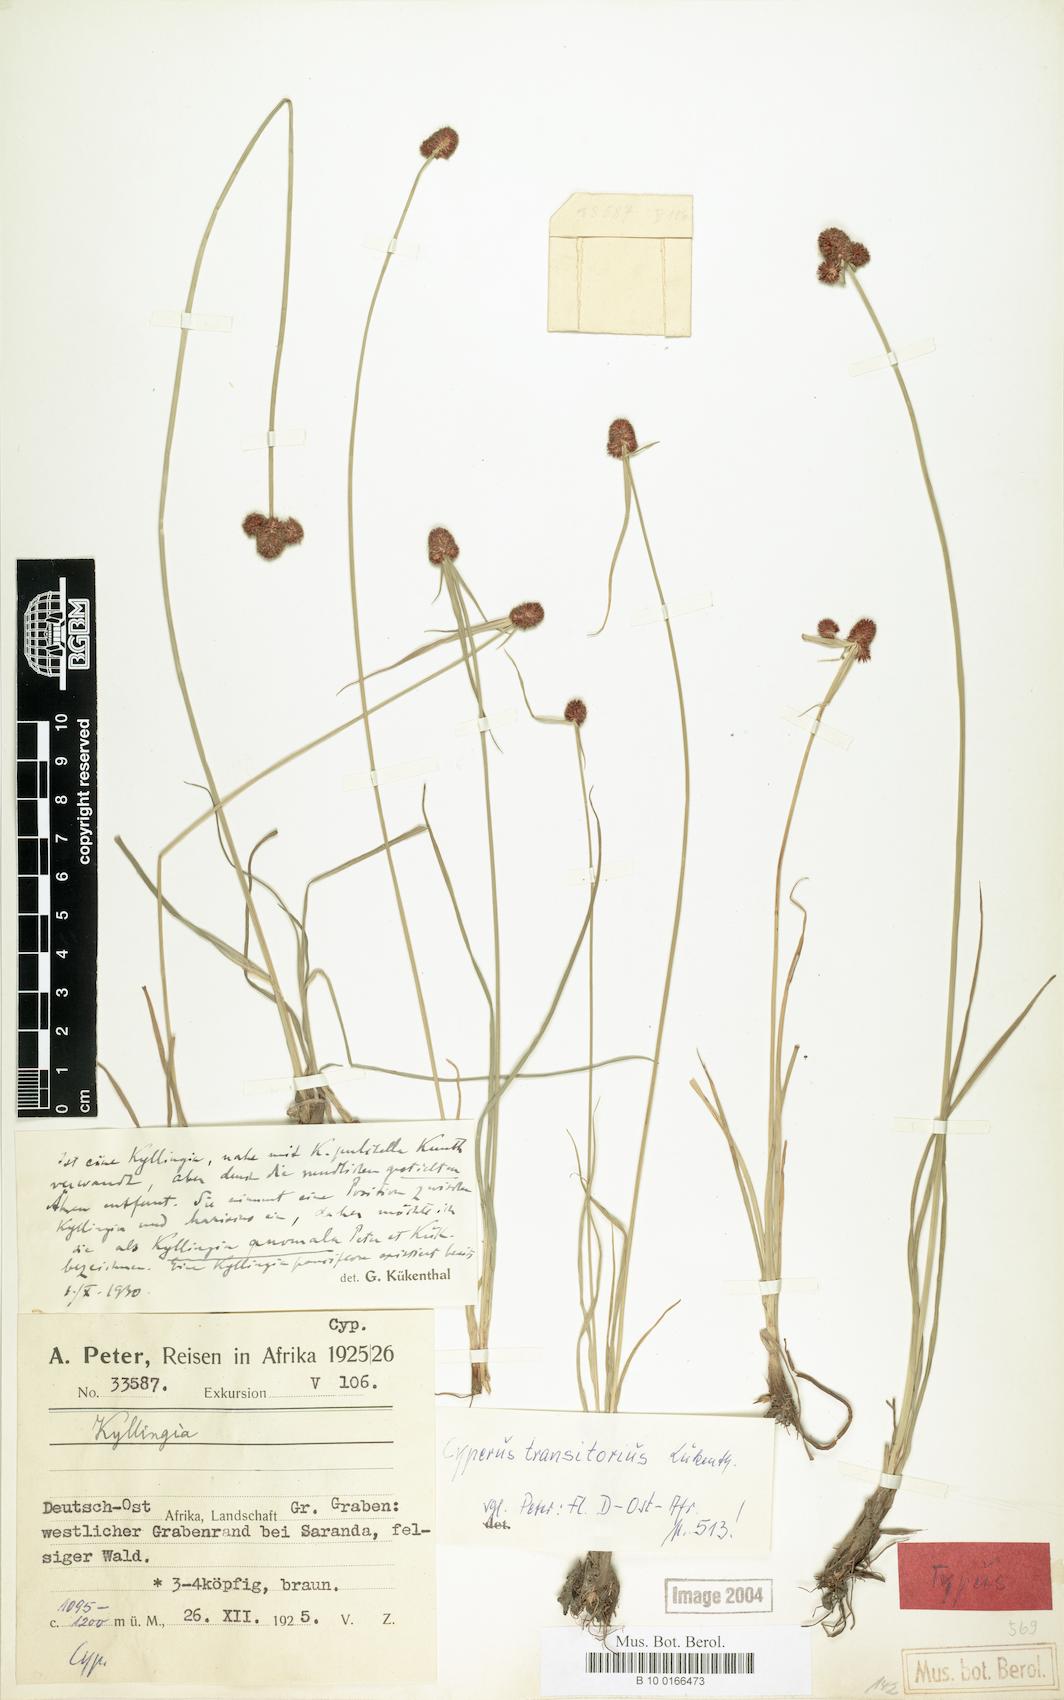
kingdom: Plantae
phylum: Tracheophyta
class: Liliopsida
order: Poales
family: Cyperaceae
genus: Cyperus
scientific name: Cyperus bracheilema
